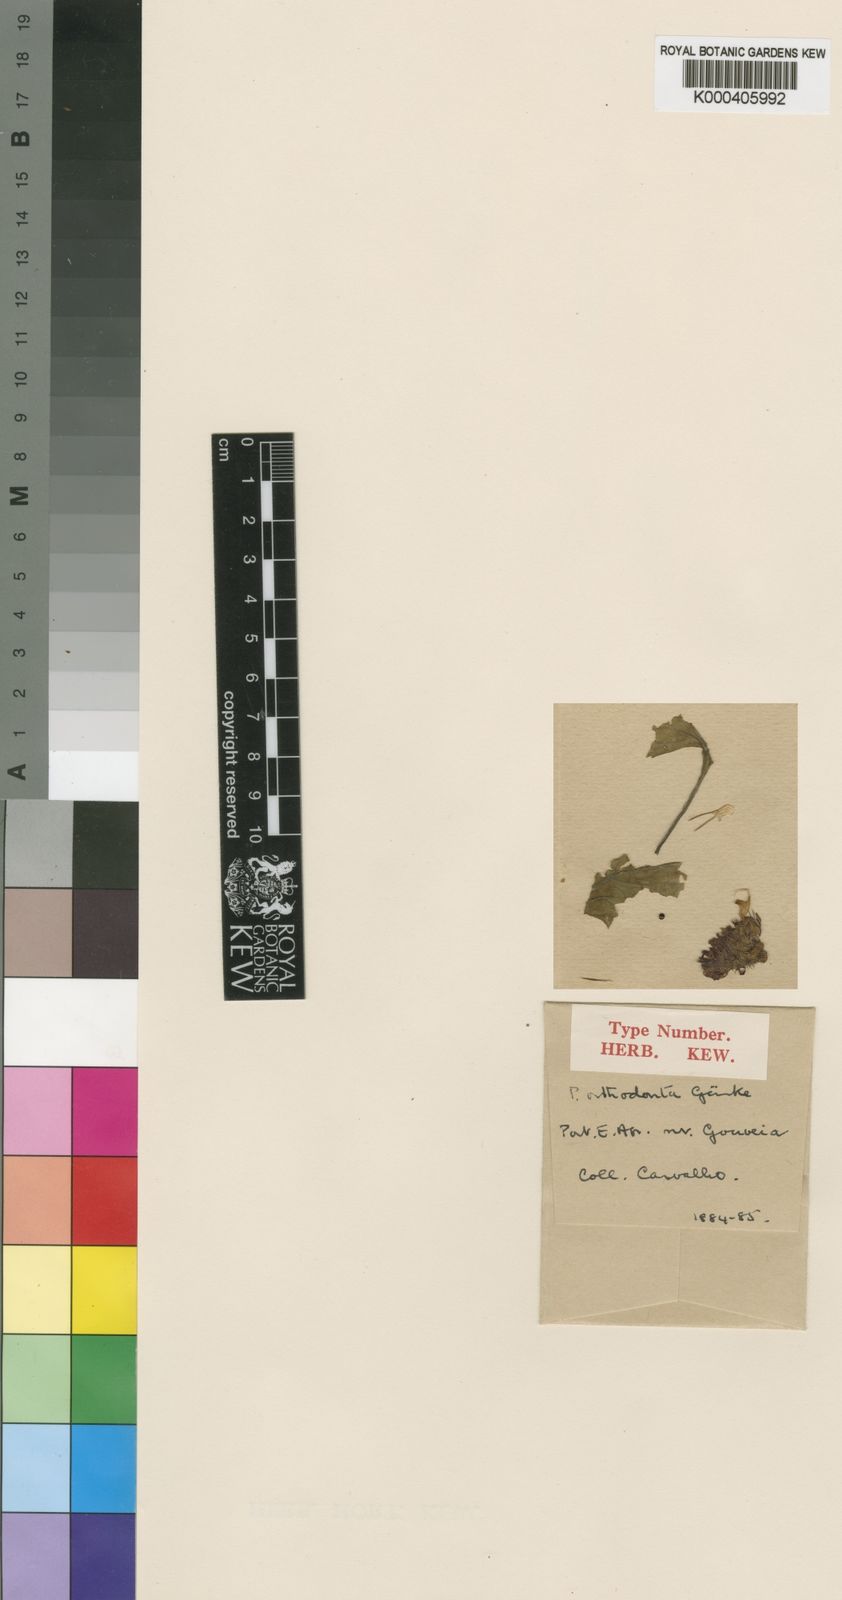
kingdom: Plantae
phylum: Tracheophyta
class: Magnoliopsida
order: Lamiales
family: Lamiaceae
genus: Coleus
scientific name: Coleus
